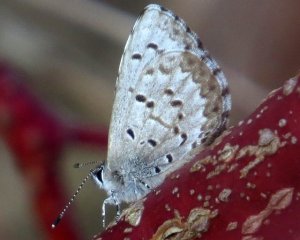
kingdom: Animalia
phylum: Arthropoda
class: Insecta
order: Lepidoptera
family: Lycaenidae
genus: Celastrina
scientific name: Celastrina lucia
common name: Northern Spring Azure
